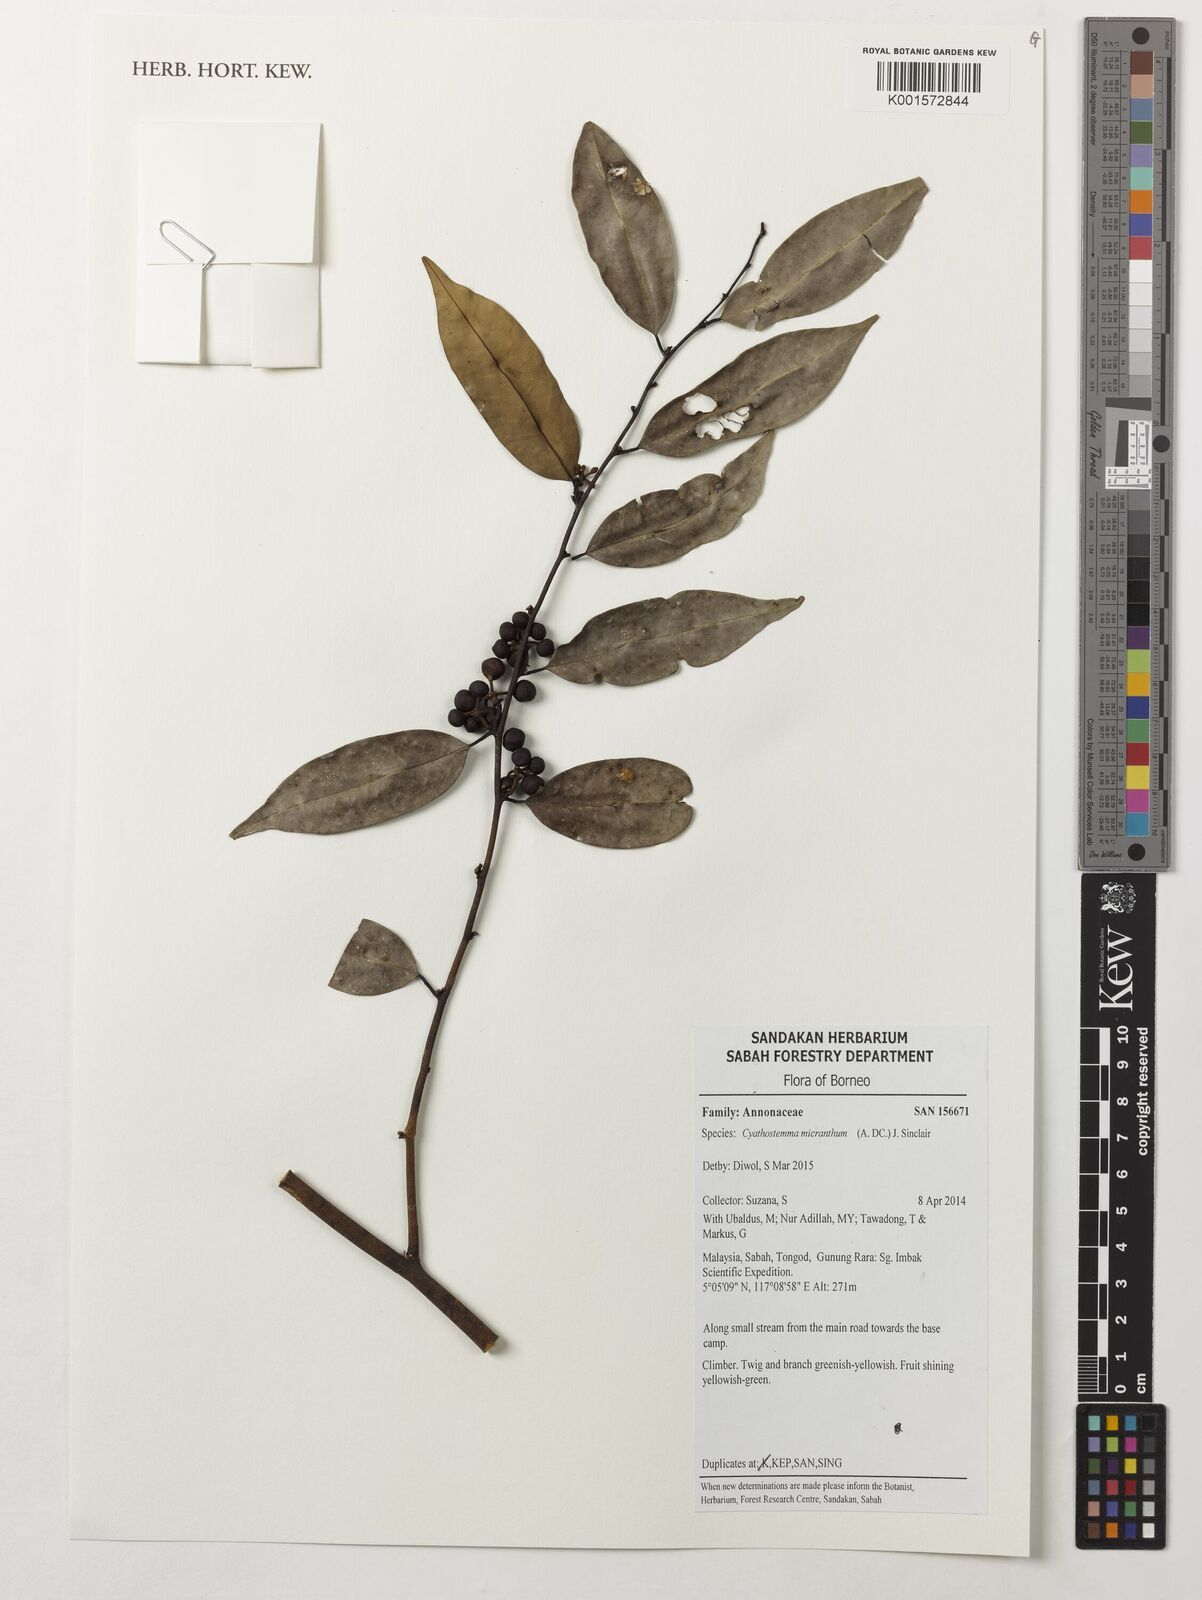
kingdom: Plantae
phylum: Tracheophyta
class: Magnoliopsida
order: Magnoliales
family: Annonaceae
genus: Uvaria
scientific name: Uvaria micrantha
